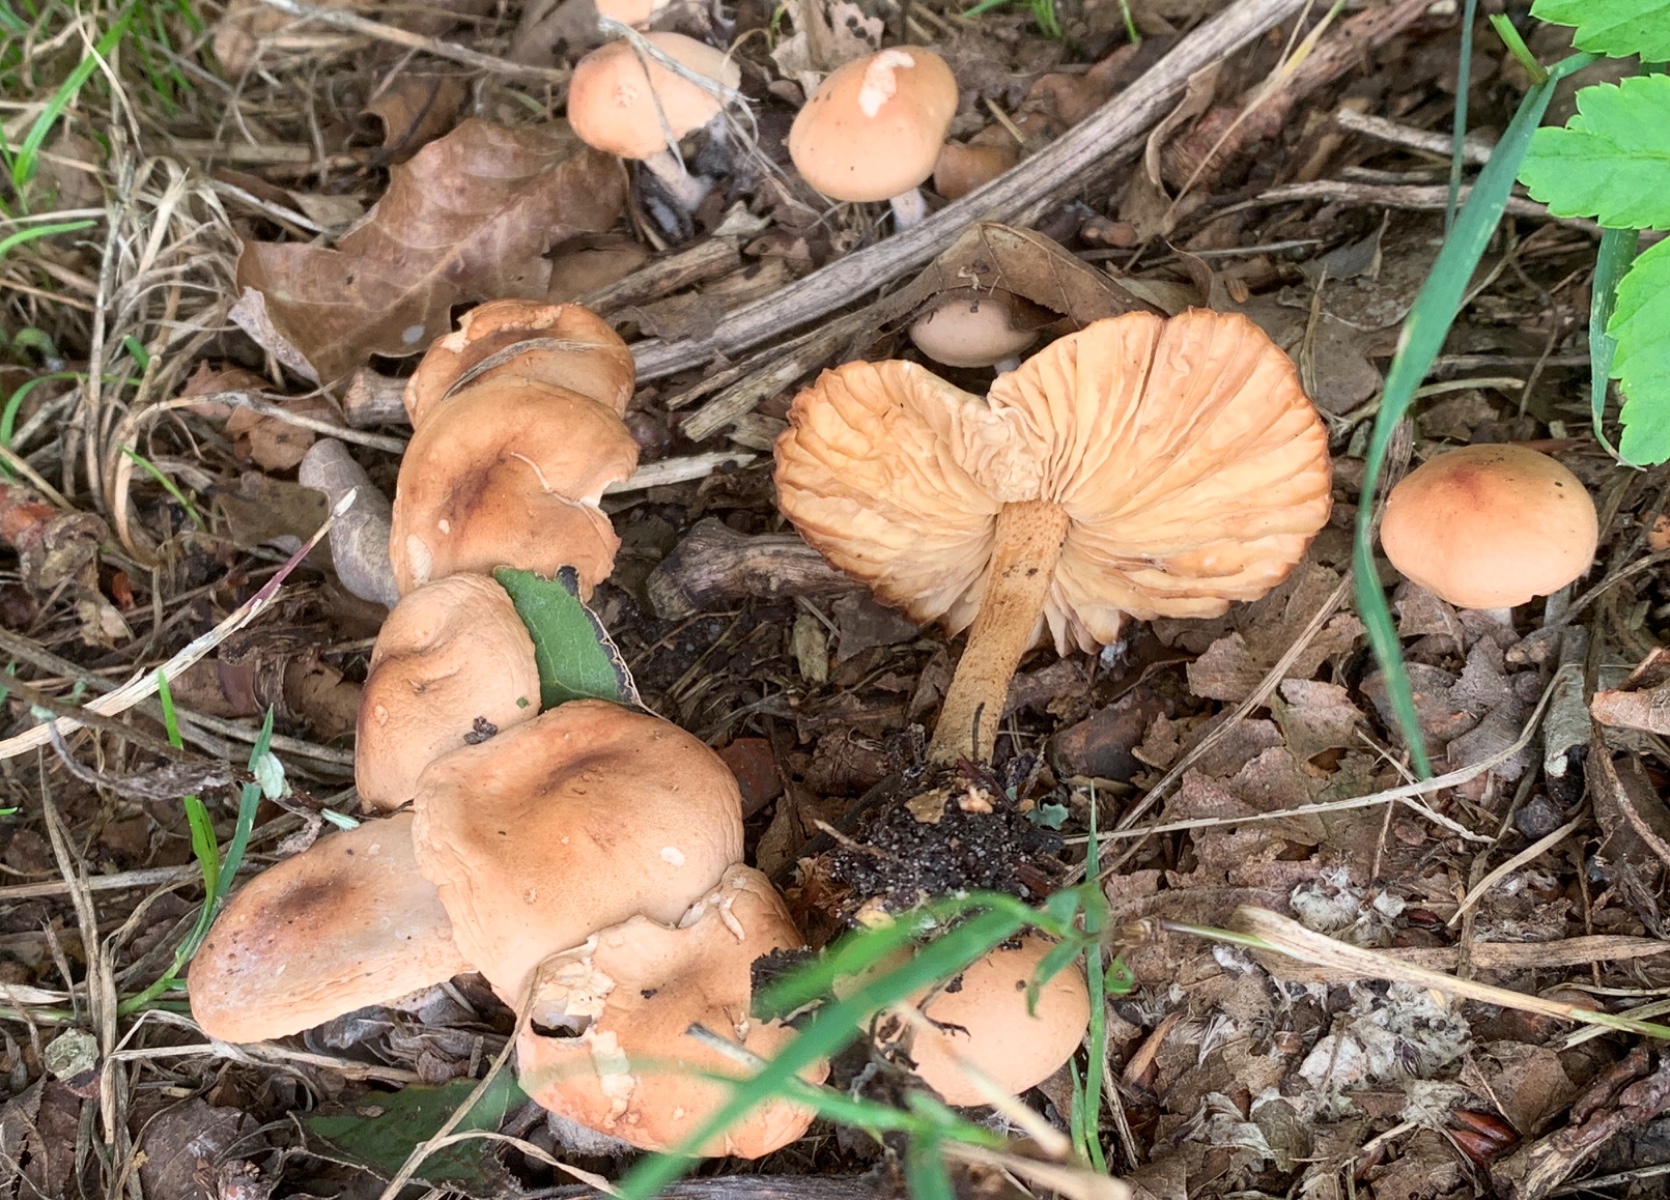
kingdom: Fungi
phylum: Basidiomycota
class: Agaricomycetes
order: Agaricales
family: Marasmiaceae
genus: Marasmius
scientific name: Marasmius oreades
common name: elledans-bruskhat
